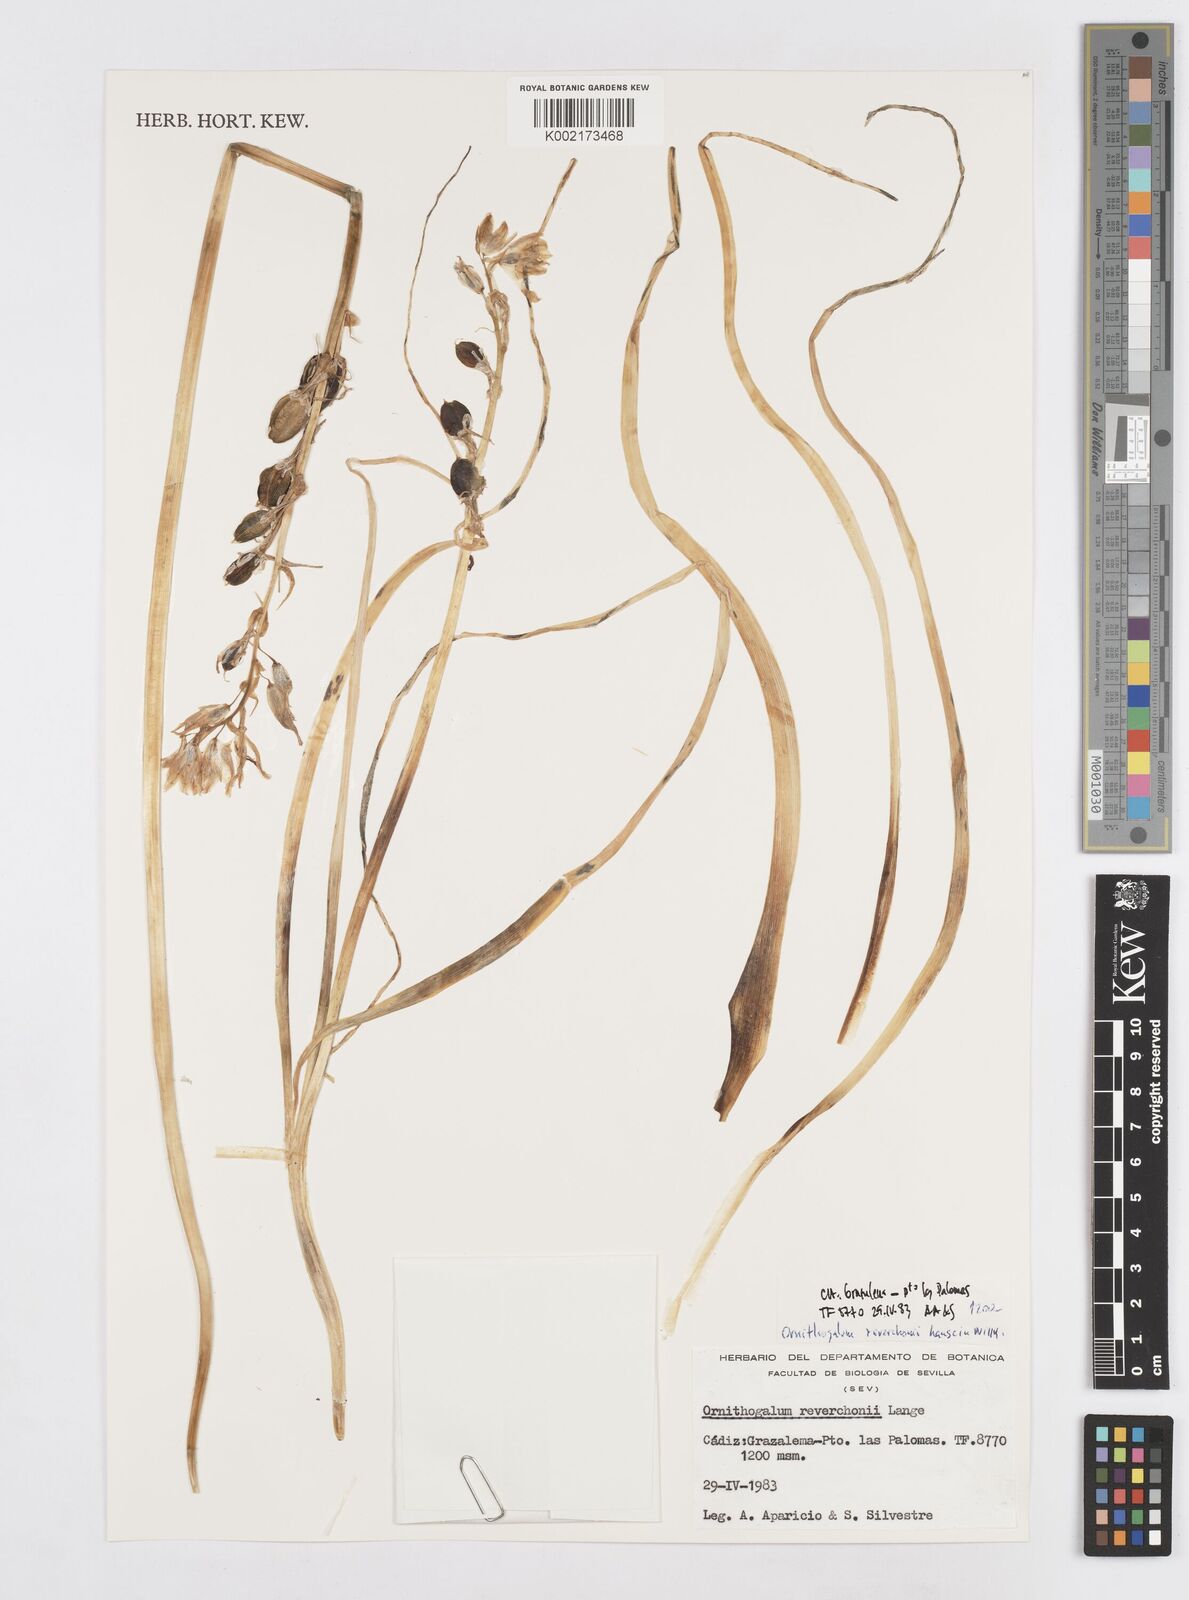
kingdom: Plantae
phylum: Tracheophyta
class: Liliopsida
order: Asparagales
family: Asparagaceae
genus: Ornithogalum
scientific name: Ornithogalum reverchonii
